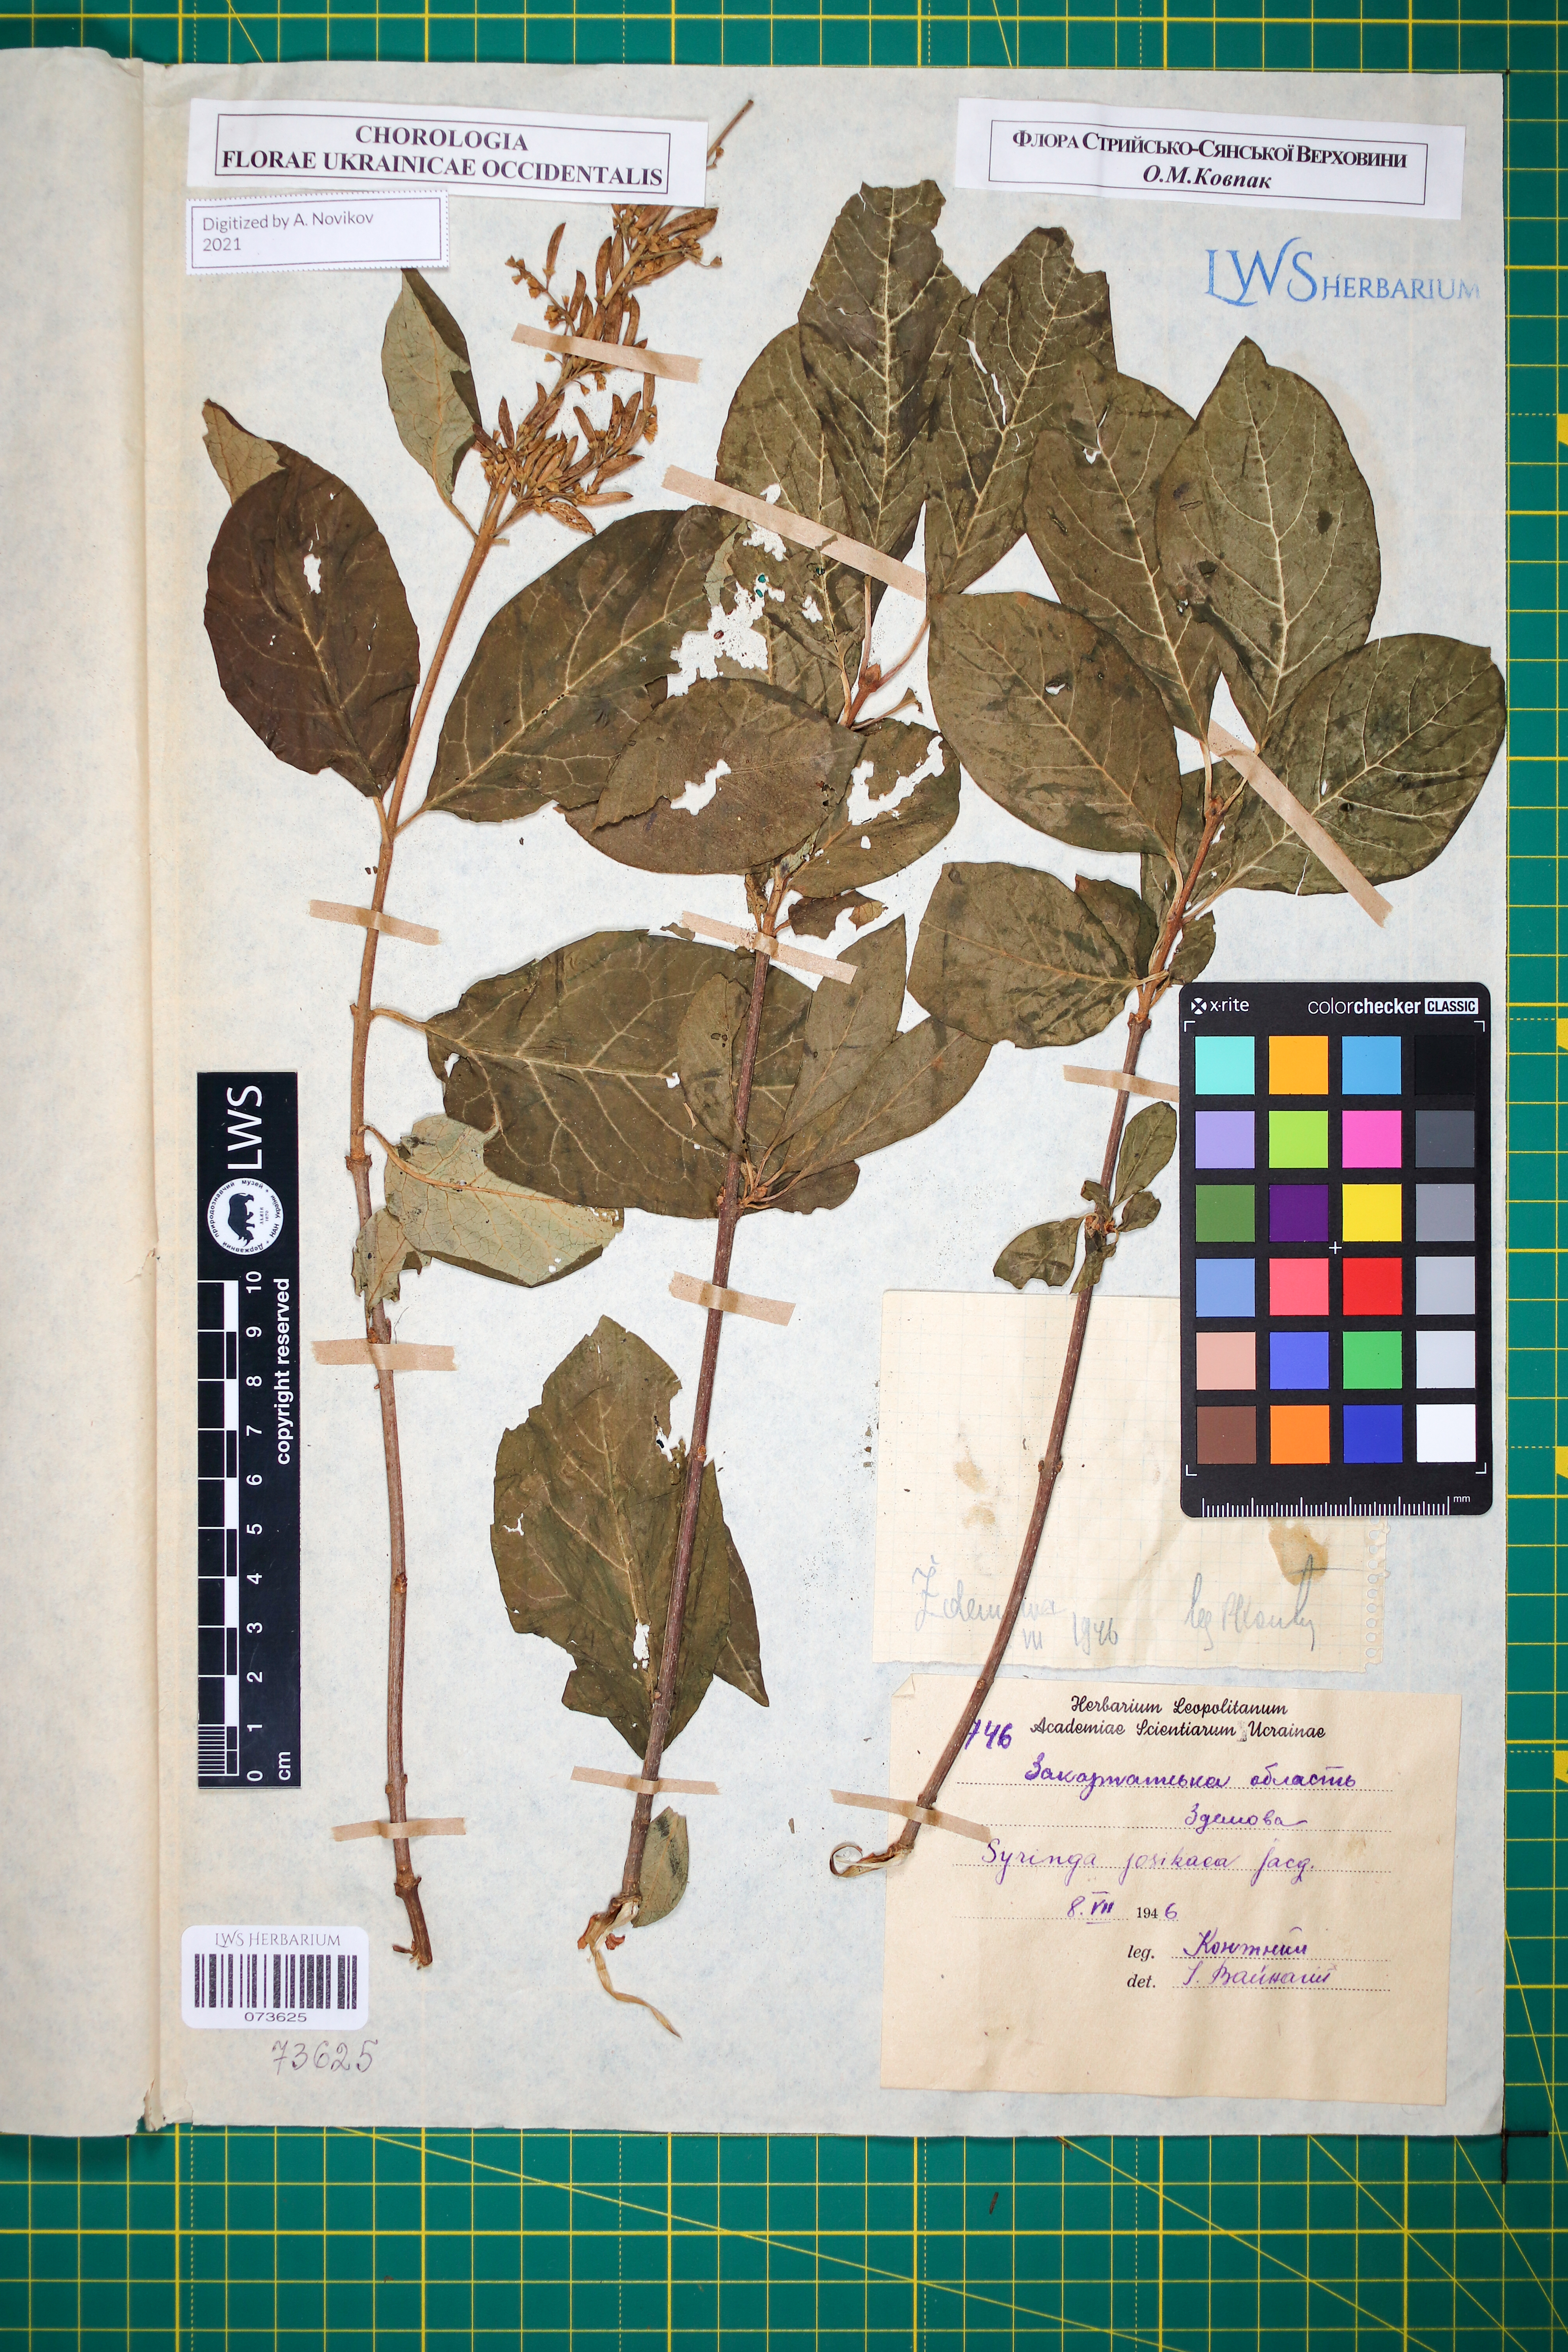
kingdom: Plantae
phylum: Tracheophyta
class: Magnoliopsida
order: Lamiales
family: Oleaceae
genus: Syringa
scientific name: Syringa josikaea
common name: Hungarian lilac
